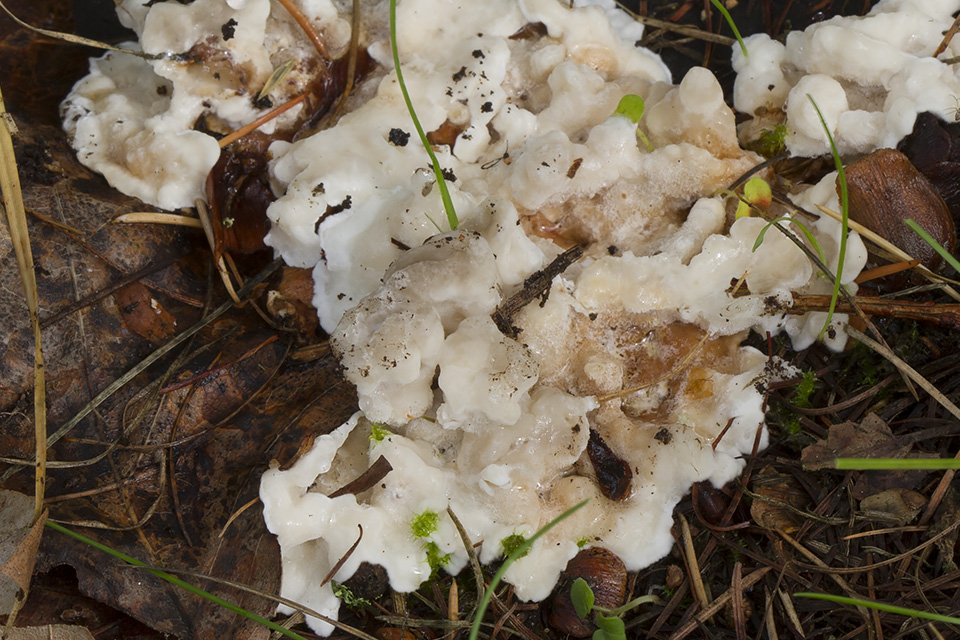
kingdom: Fungi
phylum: Basidiomycota
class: Agaricomycetes
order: Polyporales
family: Podoscyphaceae
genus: Abortiporus
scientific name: Abortiporus biennis
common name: rødmende pjalteporesvamp
